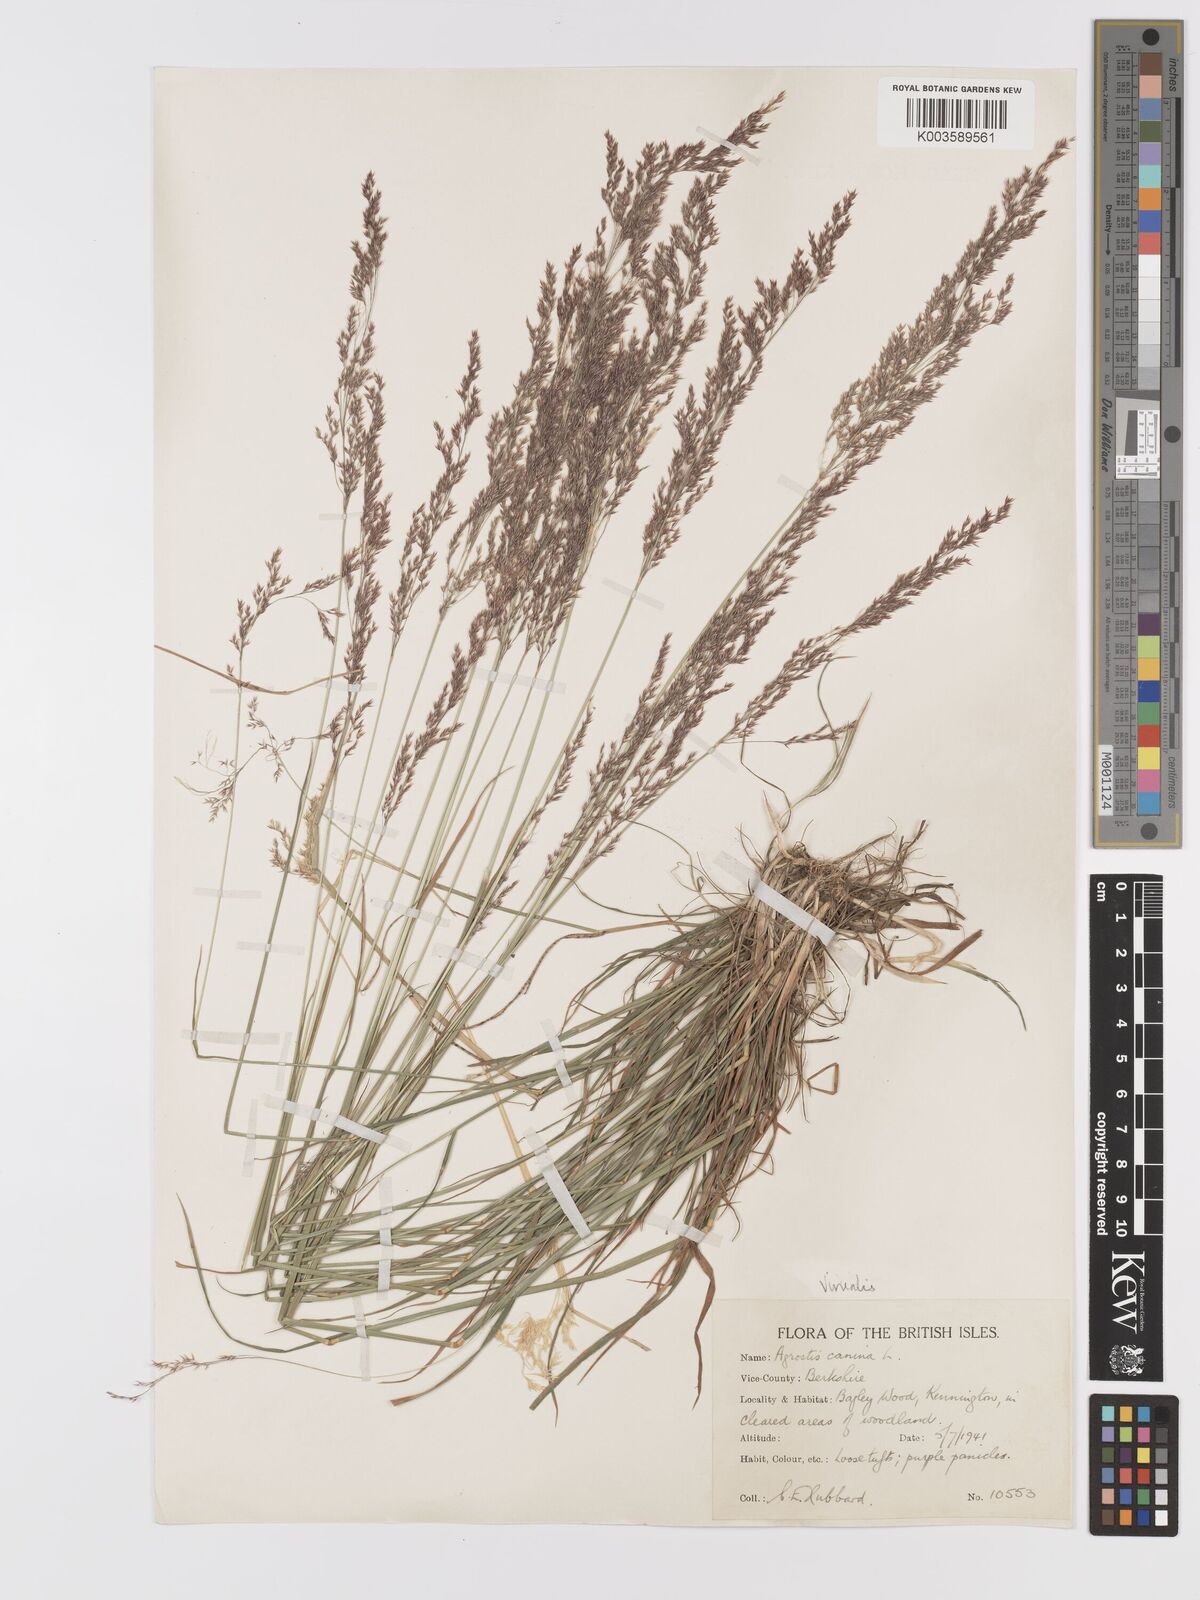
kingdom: Plantae
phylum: Tracheophyta
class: Liliopsida
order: Poales
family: Poaceae
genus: Agrostis
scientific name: Agrostis
